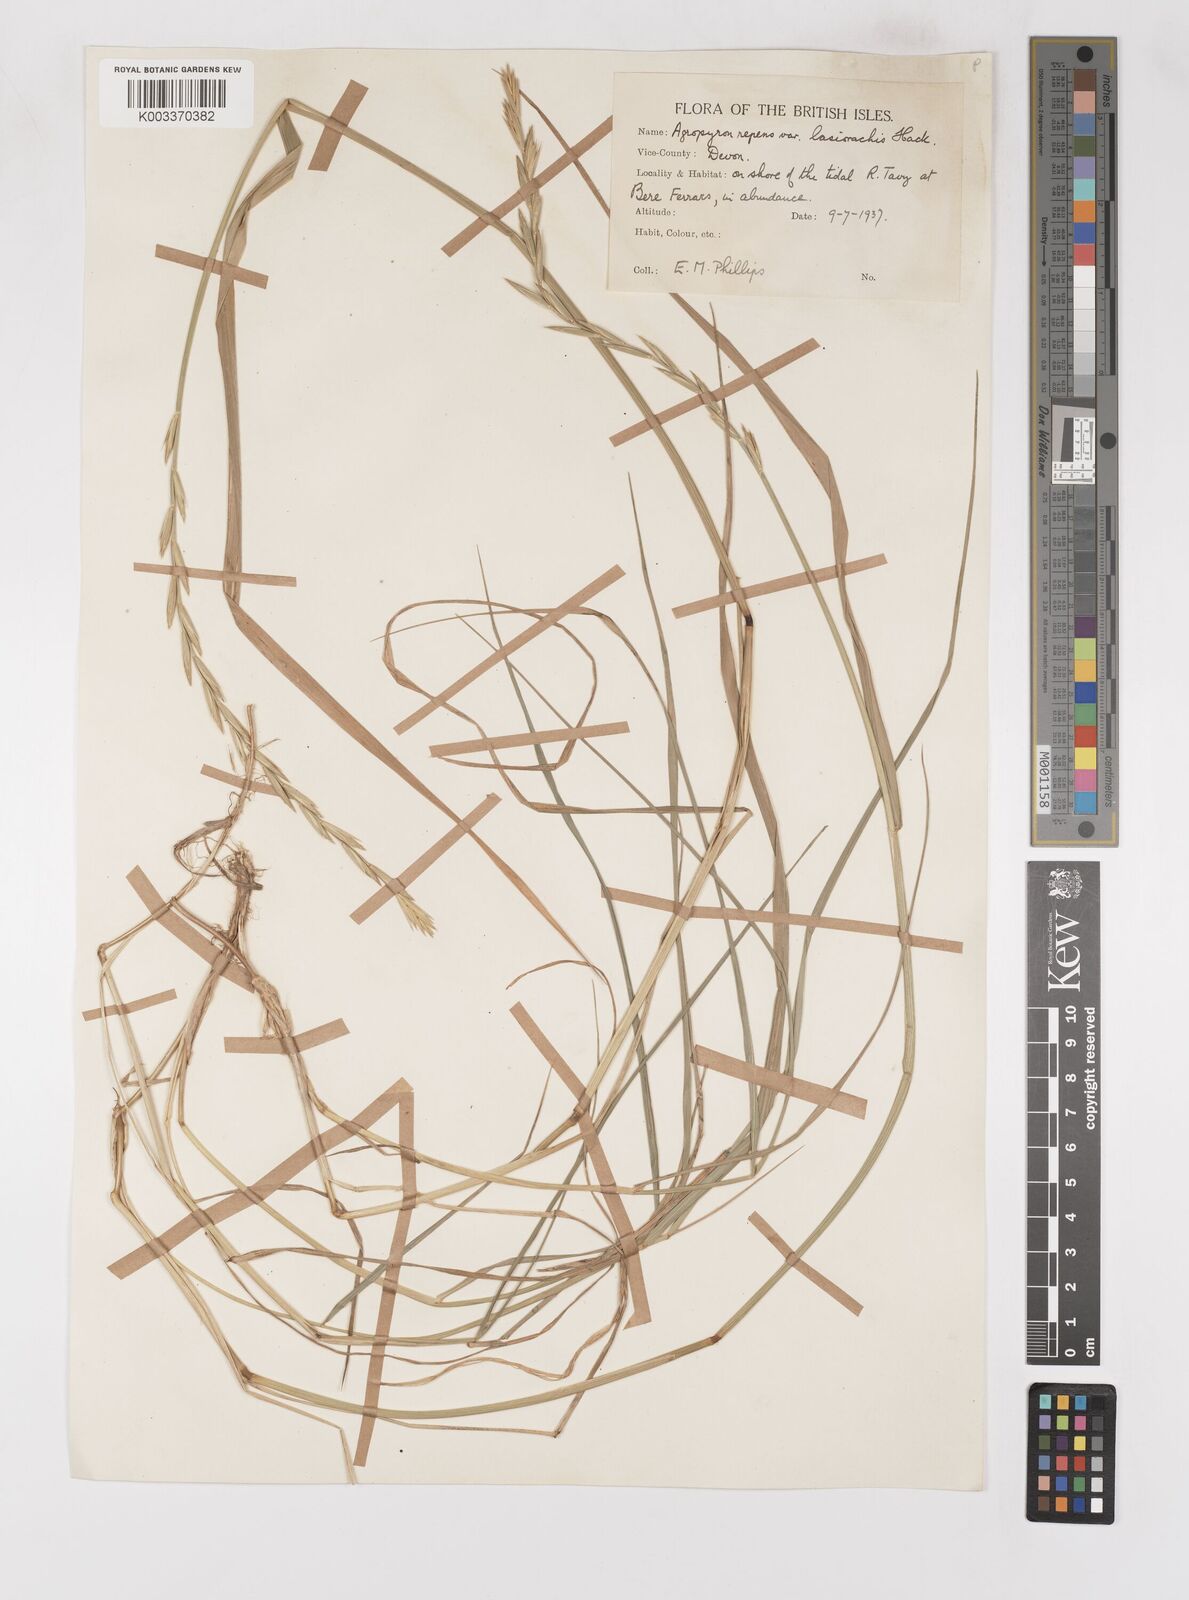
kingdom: Plantae
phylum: Tracheophyta
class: Liliopsida
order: Poales
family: Poaceae
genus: Elymus
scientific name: Elymus oliveri
